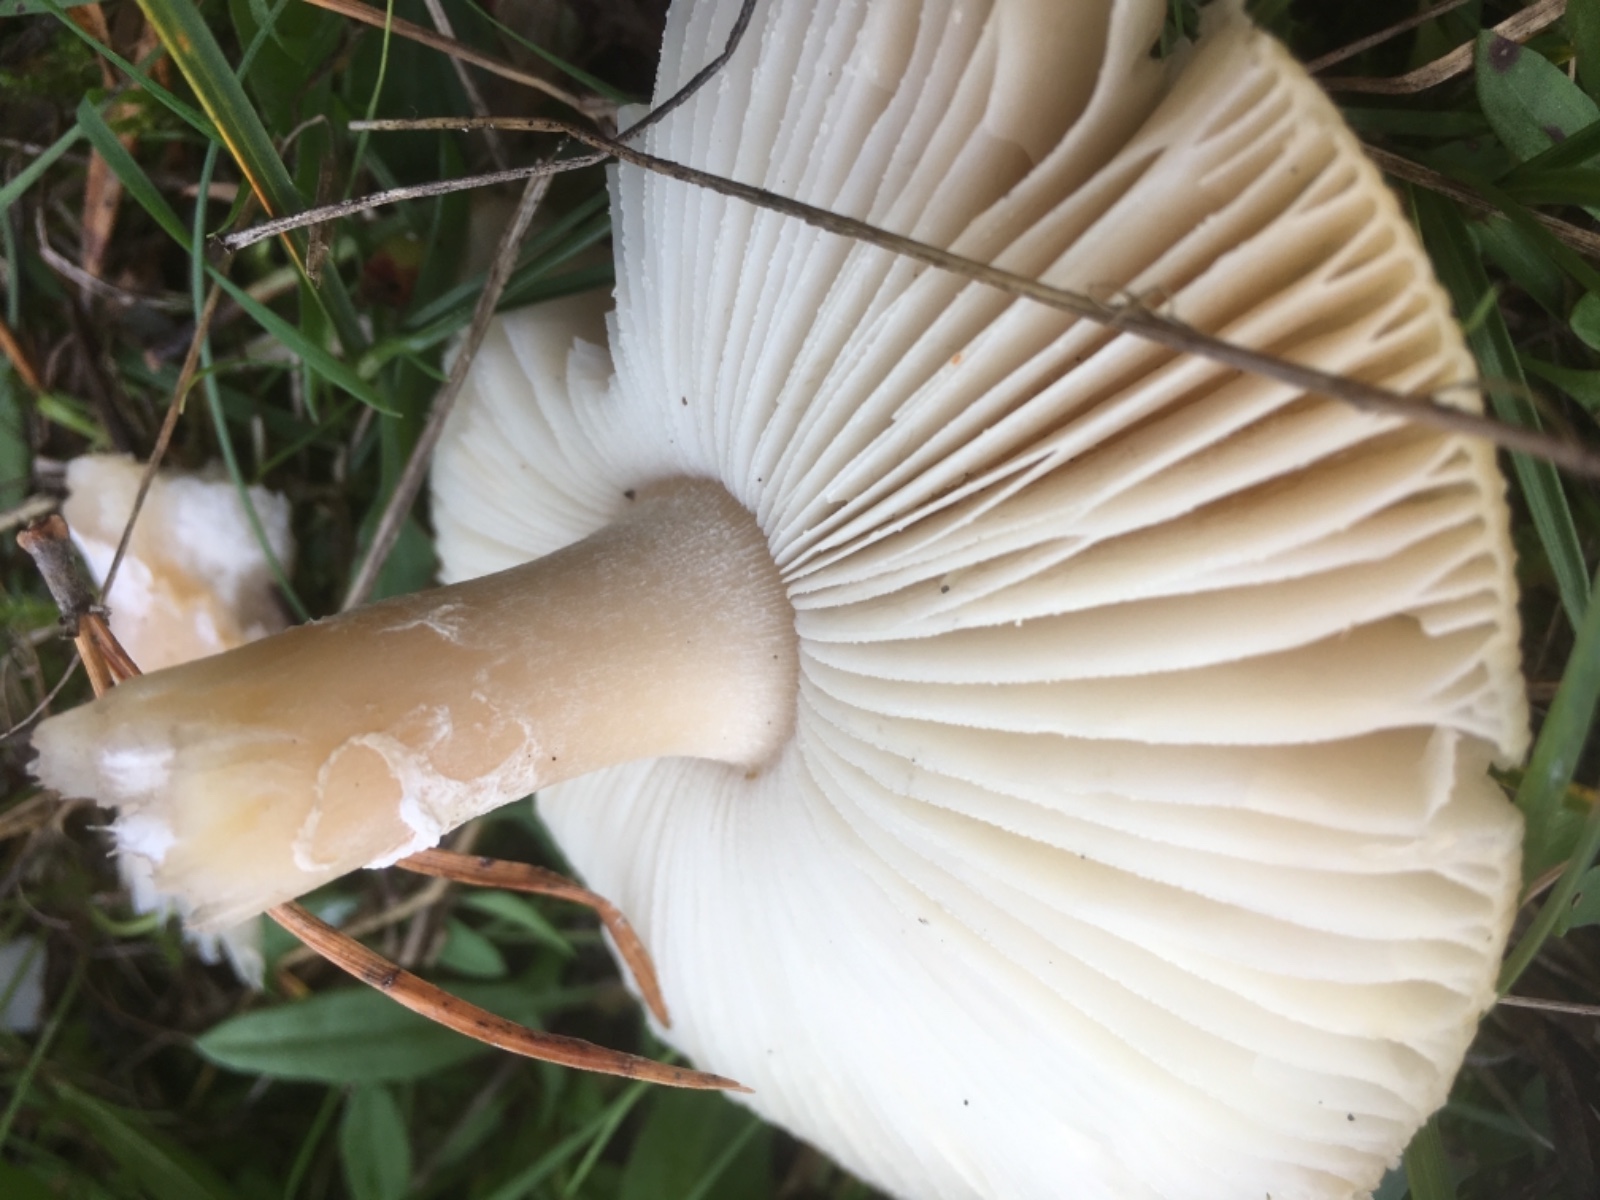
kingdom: Fungi
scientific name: Fungi
